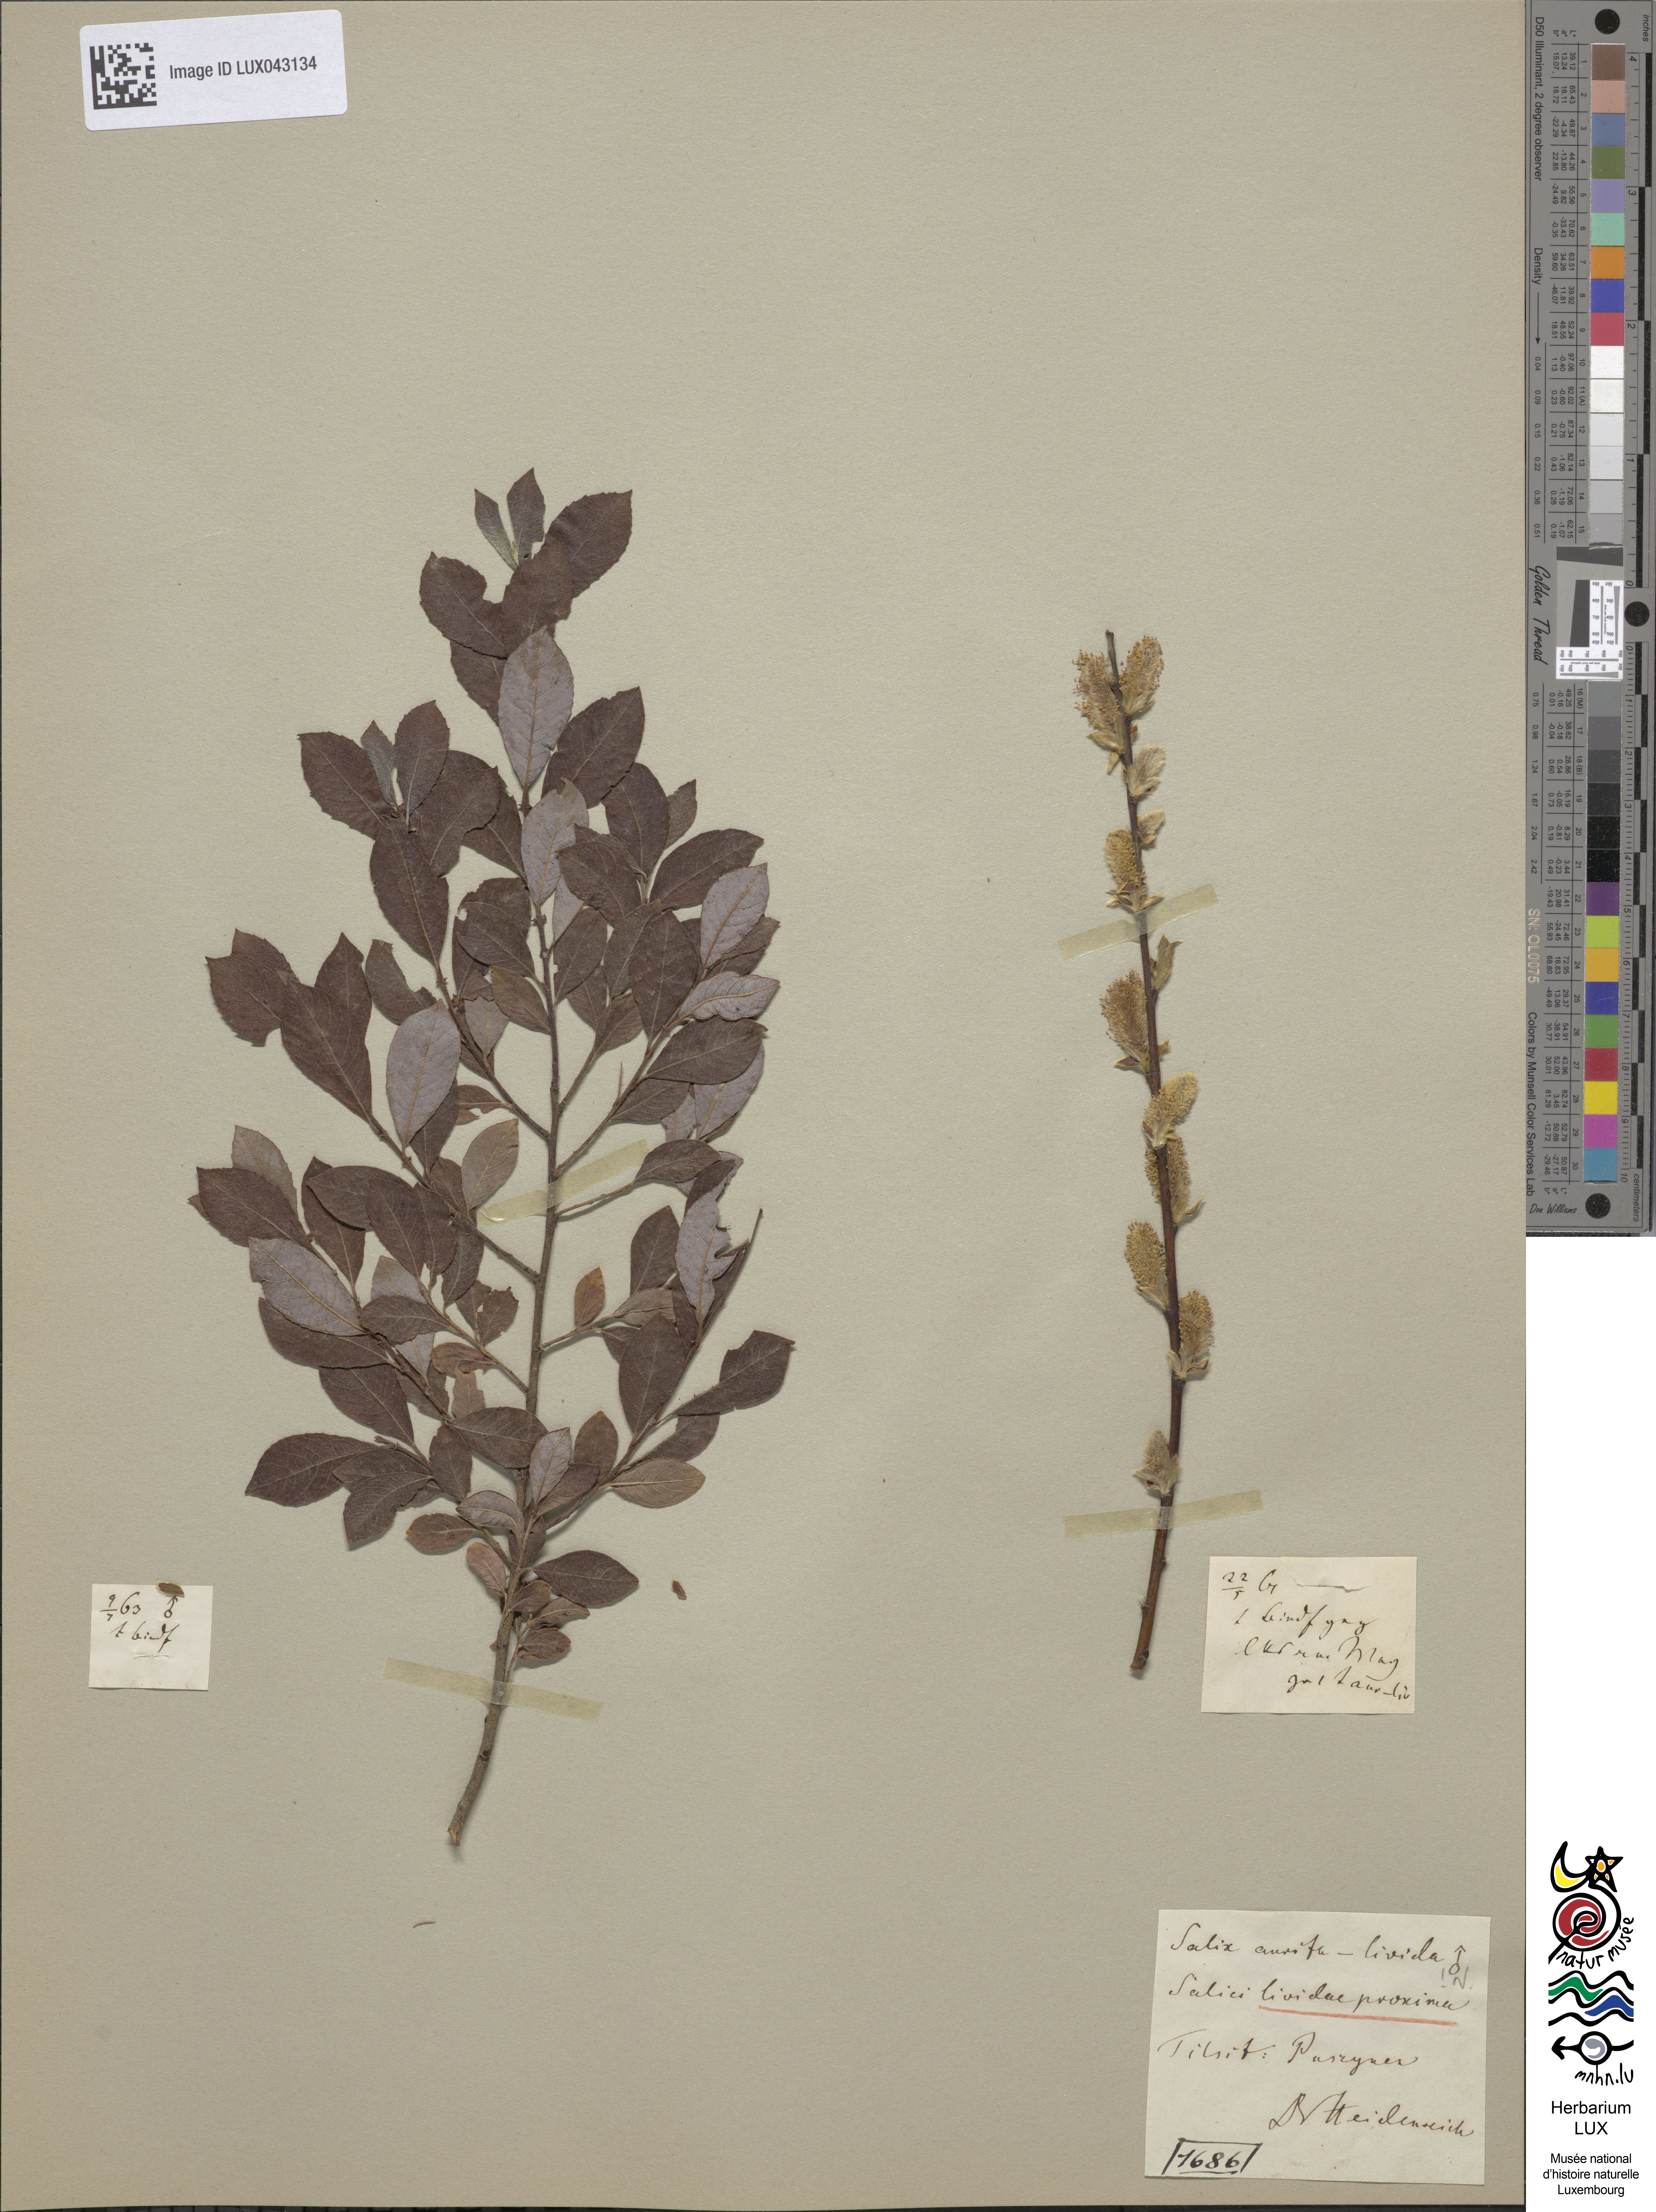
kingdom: Plantae
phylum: Tracheophyta
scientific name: Tracheophyta
